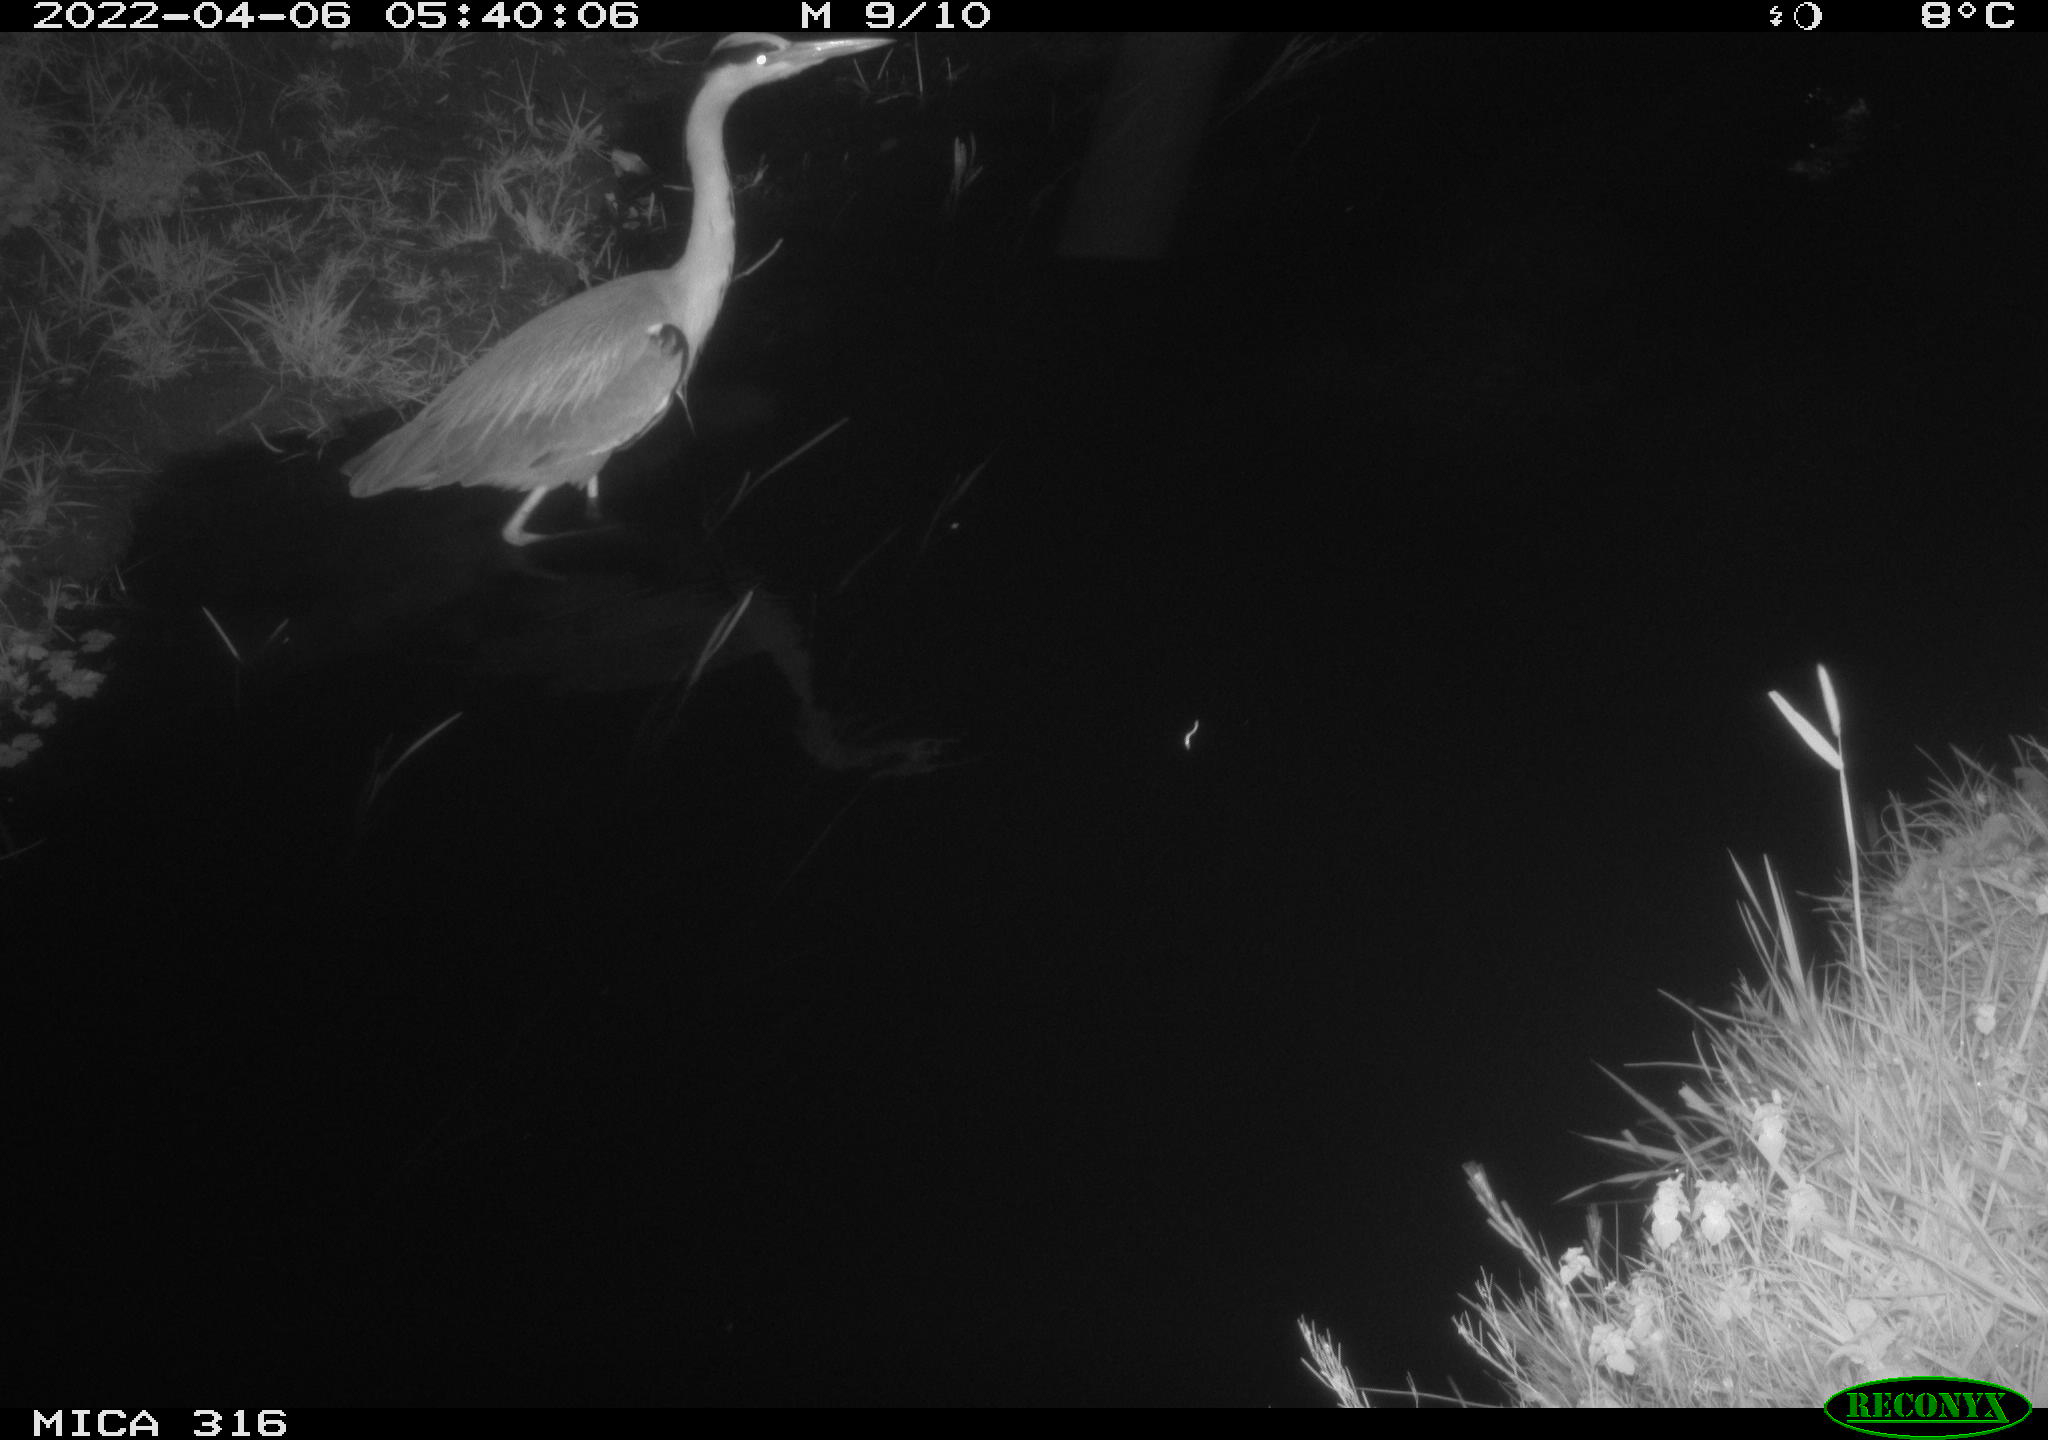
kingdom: Animalia
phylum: Chordata
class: Aves
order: Pelecaniformes
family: Ardeidae
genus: Ardea
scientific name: Ardea
